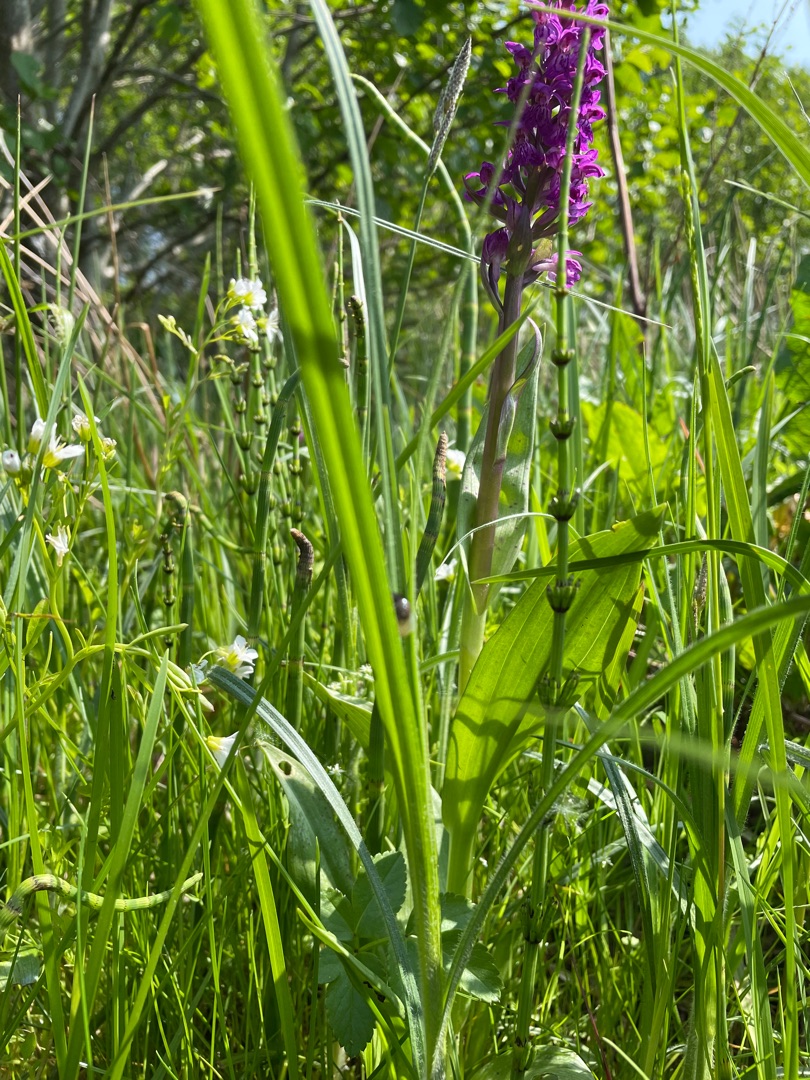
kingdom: Plantae
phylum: Tracheophyta
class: Liliopsida
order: Poales
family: Cyperaceae
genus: Carex
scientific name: Carex hirta
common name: Håret star
